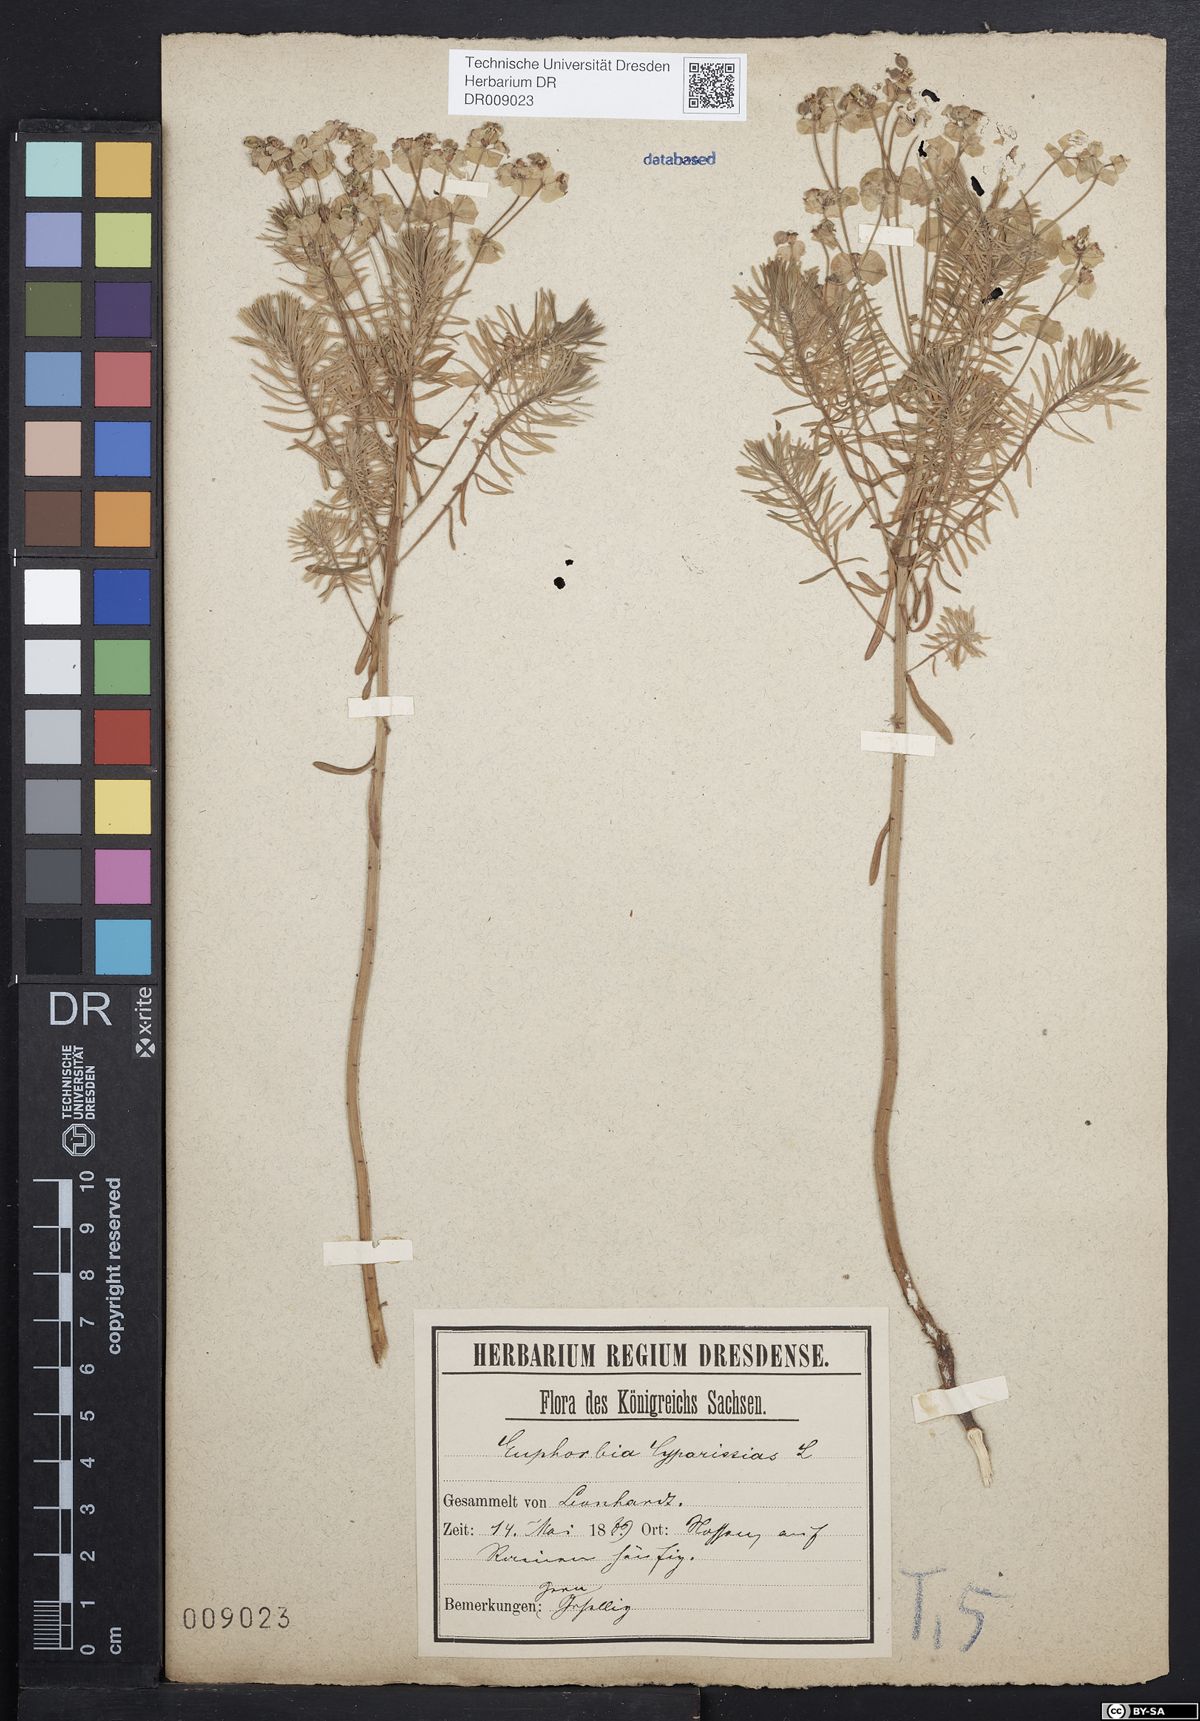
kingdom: Plantae
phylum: Tracheophyta
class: Magnoliopsida
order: Malpighiales
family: Euphorbiaceae
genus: Euphorbia
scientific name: Euphorbia cyparissias
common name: Cypress spurge
